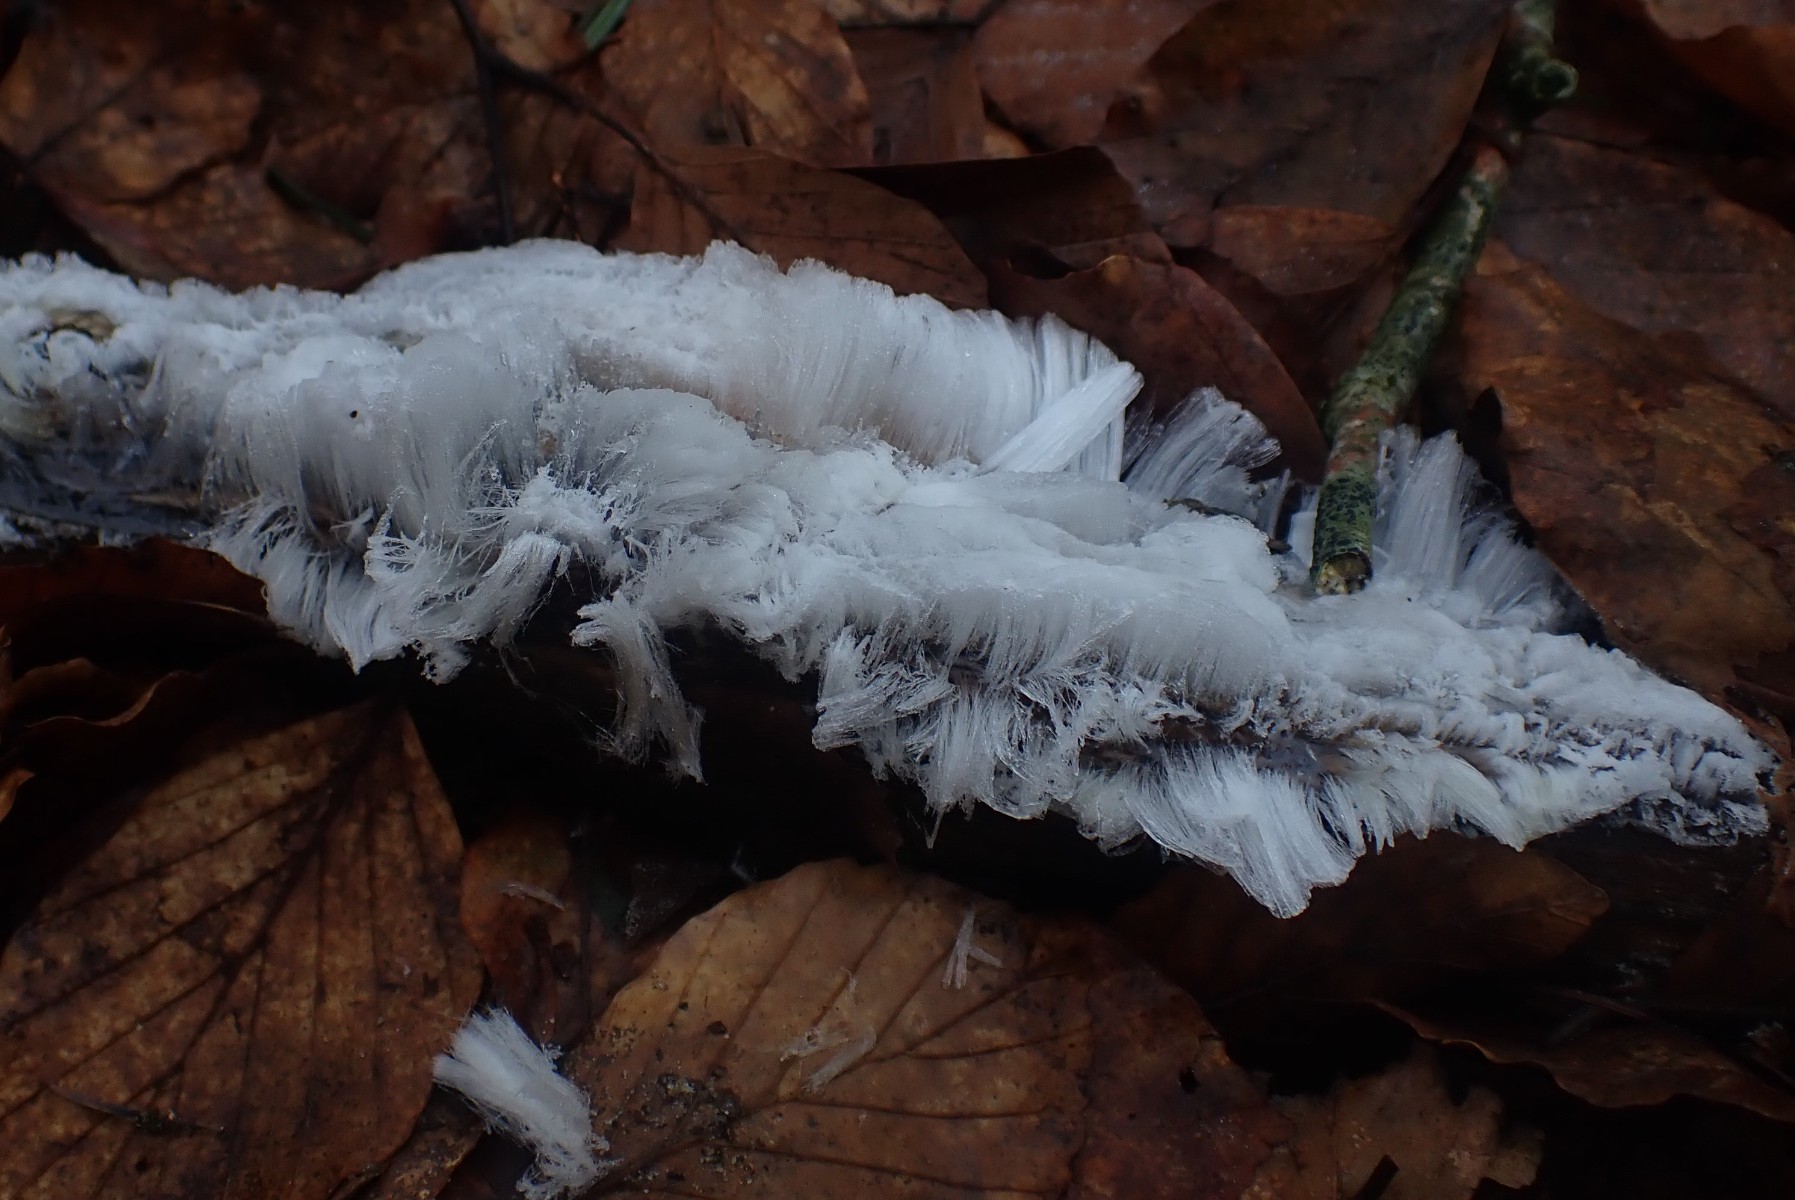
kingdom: Fungi
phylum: Basidiomycota
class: Tremellomycetes
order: Tremellales
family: Exidiaceae
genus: Exidiopsis
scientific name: Exidiopsis effusa
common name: smuk bævrehinde
